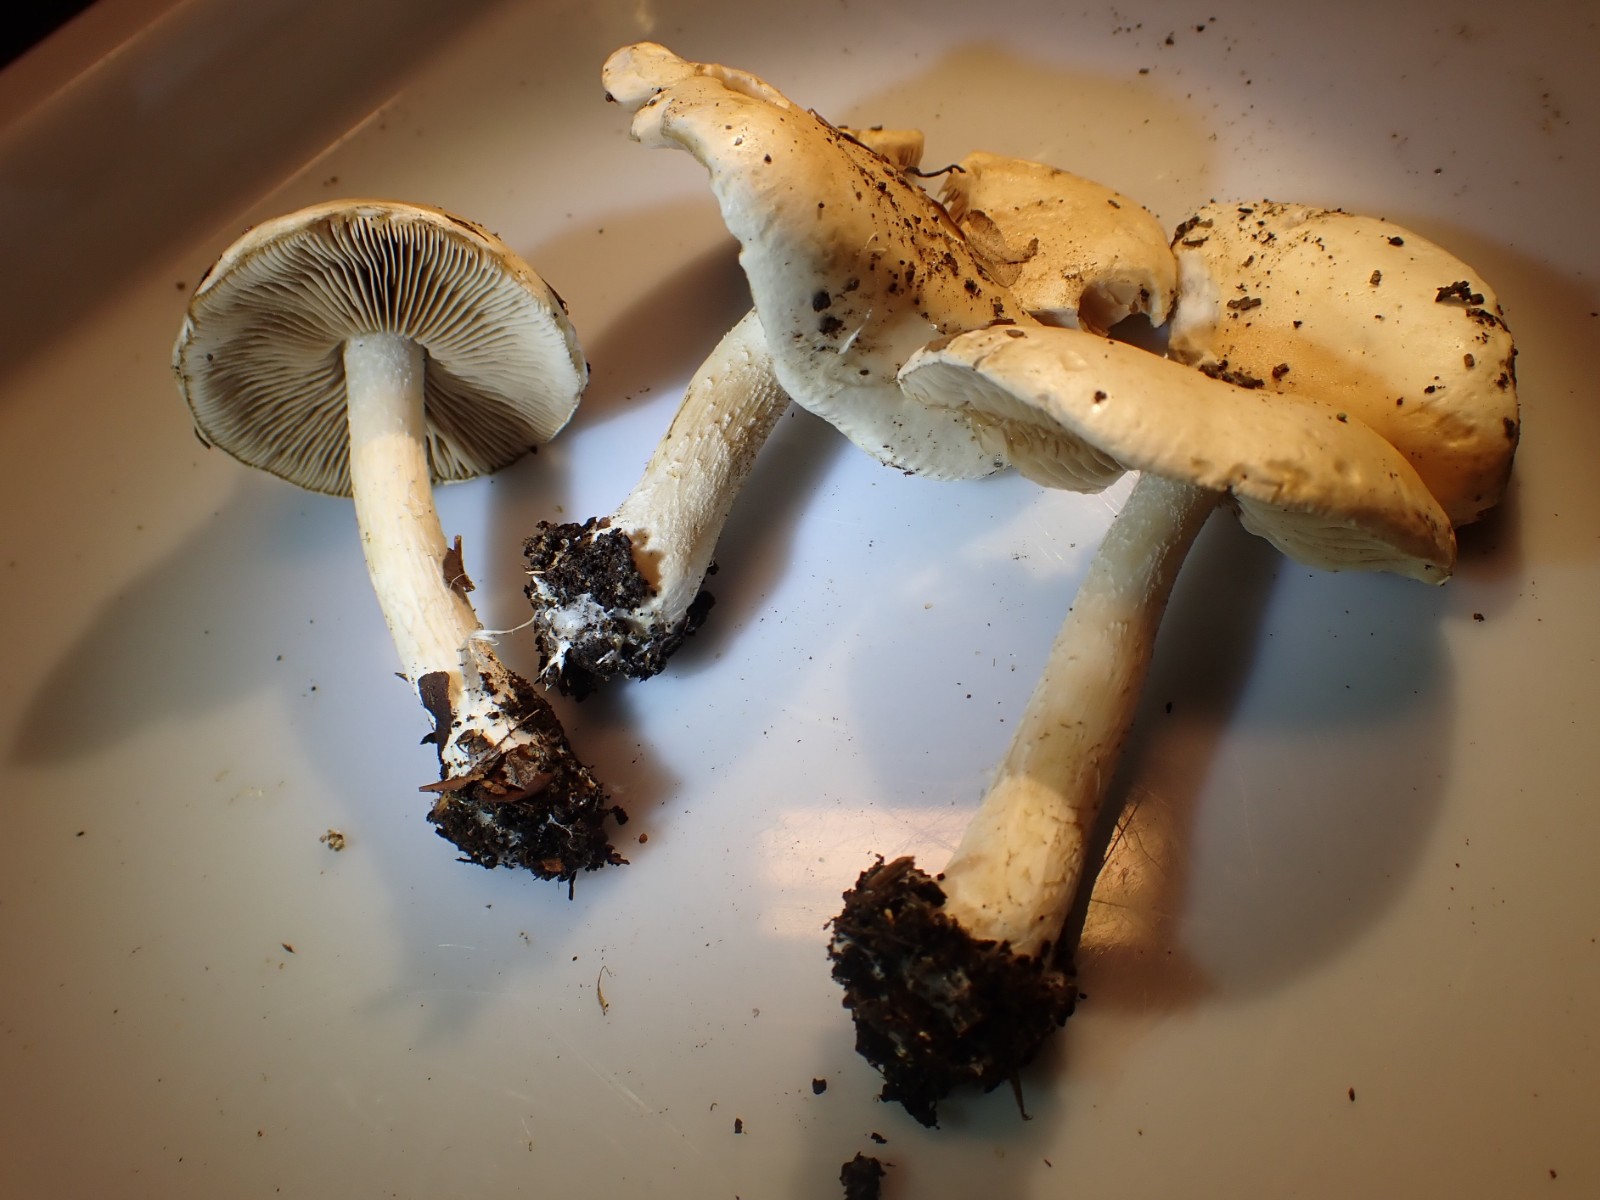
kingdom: Fungi
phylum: Basidiomycota
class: Agaricomycetes
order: Agaricales
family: Hymenogastraceae
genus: Hebeloma
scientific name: Hebeloma
